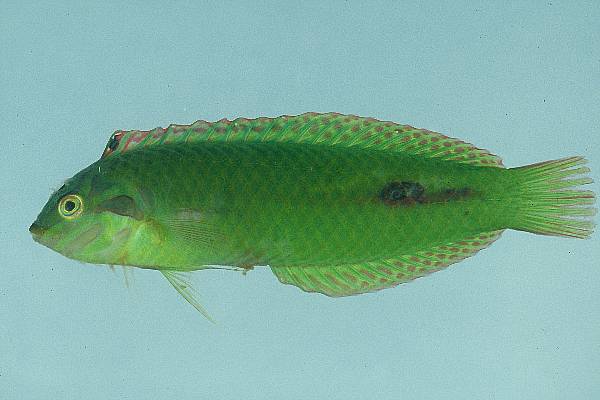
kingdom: Animalia
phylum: Chordata
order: Perciformes
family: Labridae
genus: Novaculoides
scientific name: Novaculoides macrolepidotus
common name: Seagrass wrasse
